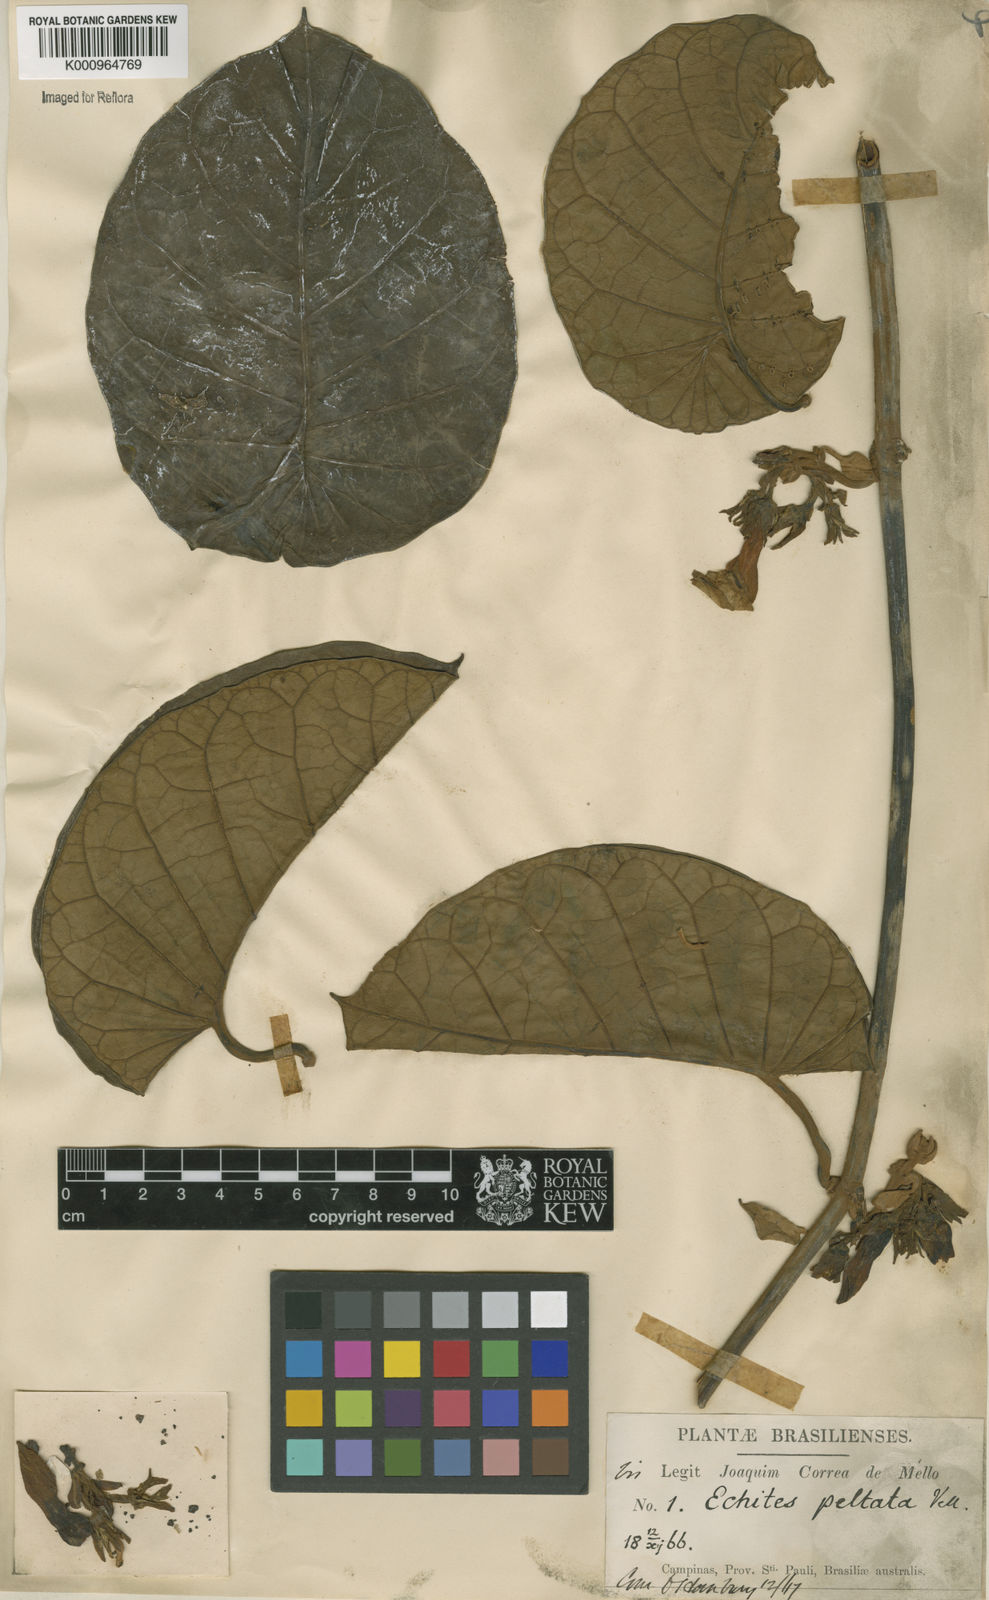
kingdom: Plantae
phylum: Tracheophyta
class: Magnoliopsida
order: Gentianales
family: Apocynaceae
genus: Macropharynx
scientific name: Macropharynx peltata
